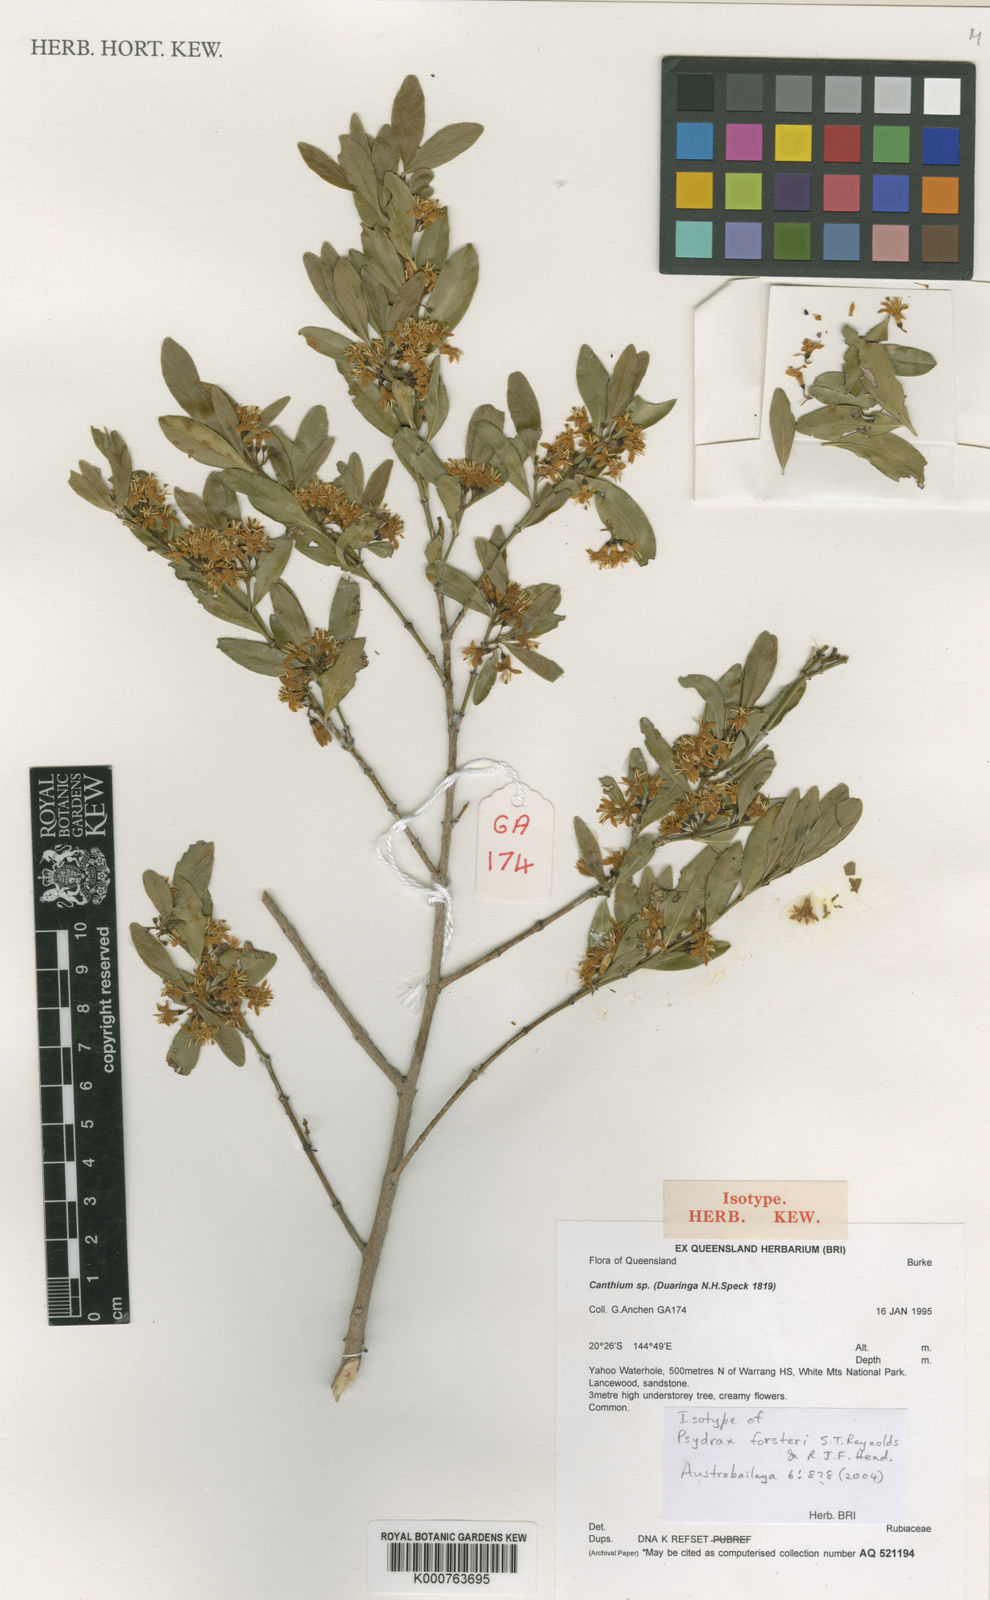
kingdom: Plantae
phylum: Tracheophyta
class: Magnoliopsida
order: Gentianales
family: Rubiaceae
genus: Psydrax
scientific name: Psydrax forsteri
